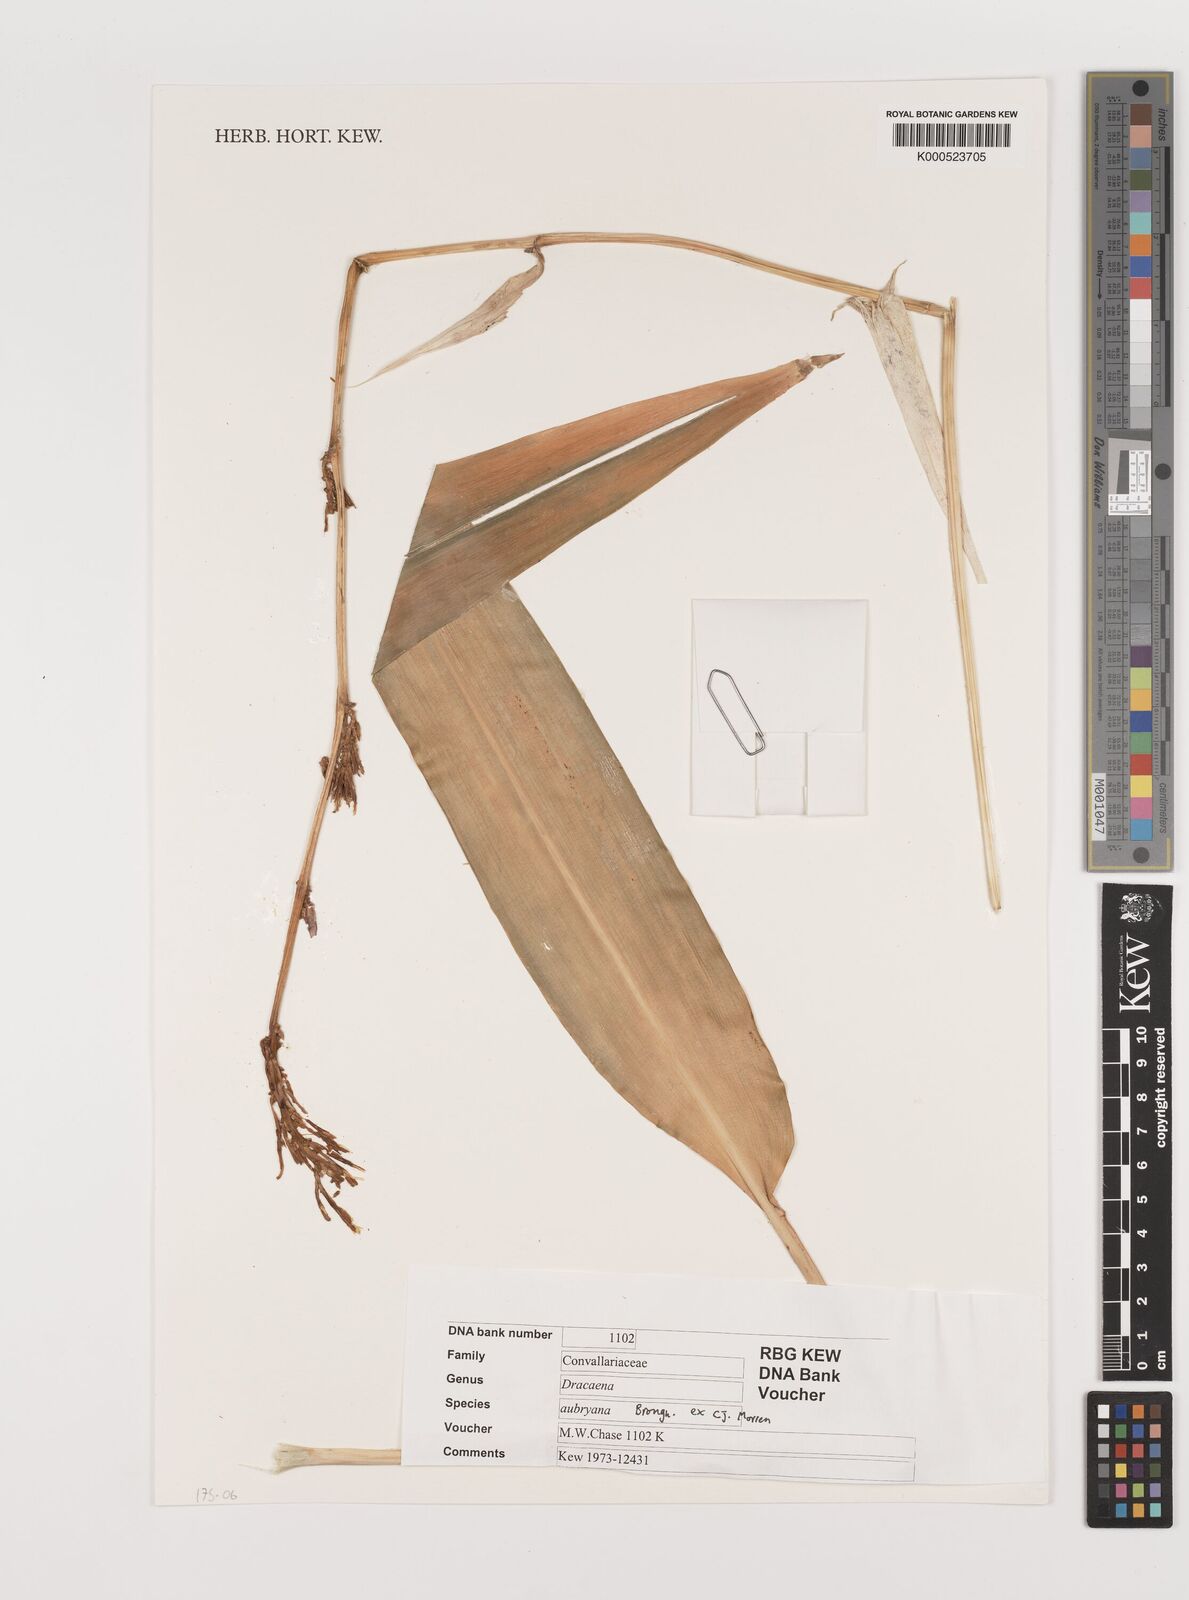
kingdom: Plantae
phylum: Tracheophyta
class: Liliopsida
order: Asparagales
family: Asparagaceae
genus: Dracaena
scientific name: Dracaena aubryana
